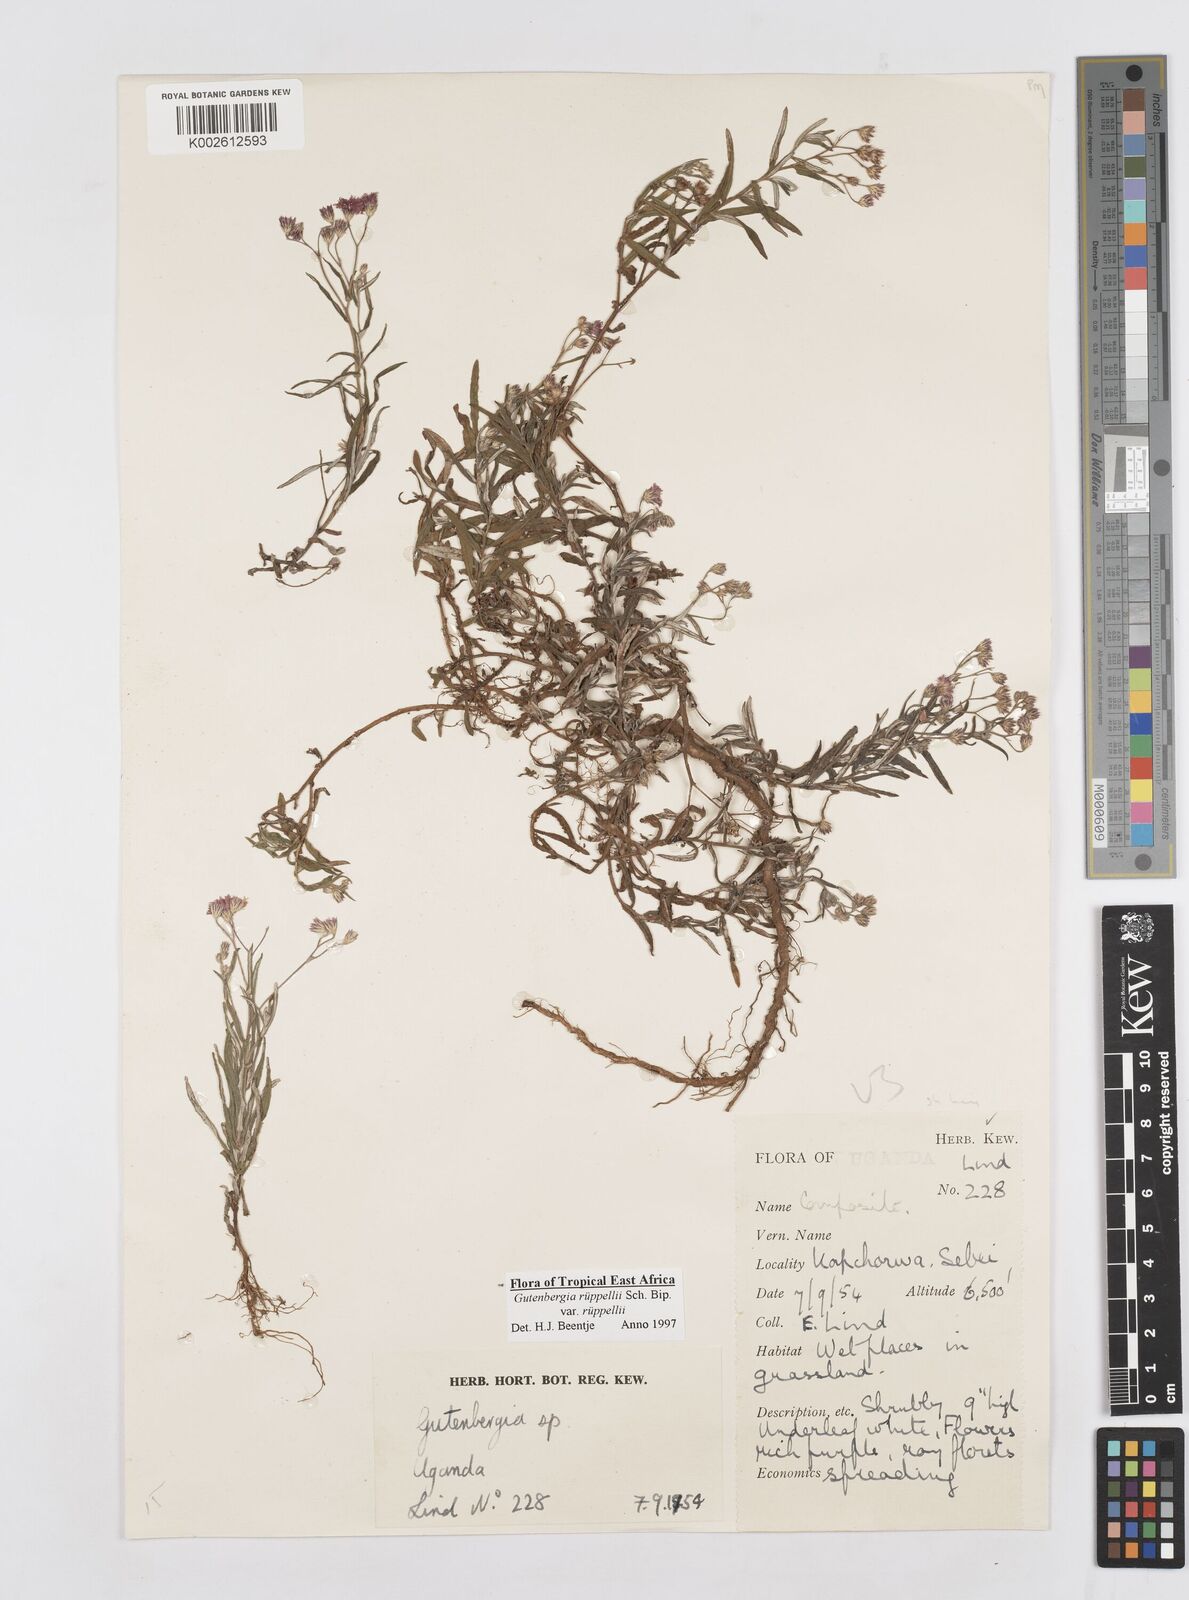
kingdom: Plantae
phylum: Tracheophyta
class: Magnoliopsida
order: Asterales
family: Asteraceae
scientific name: Asteraceae
